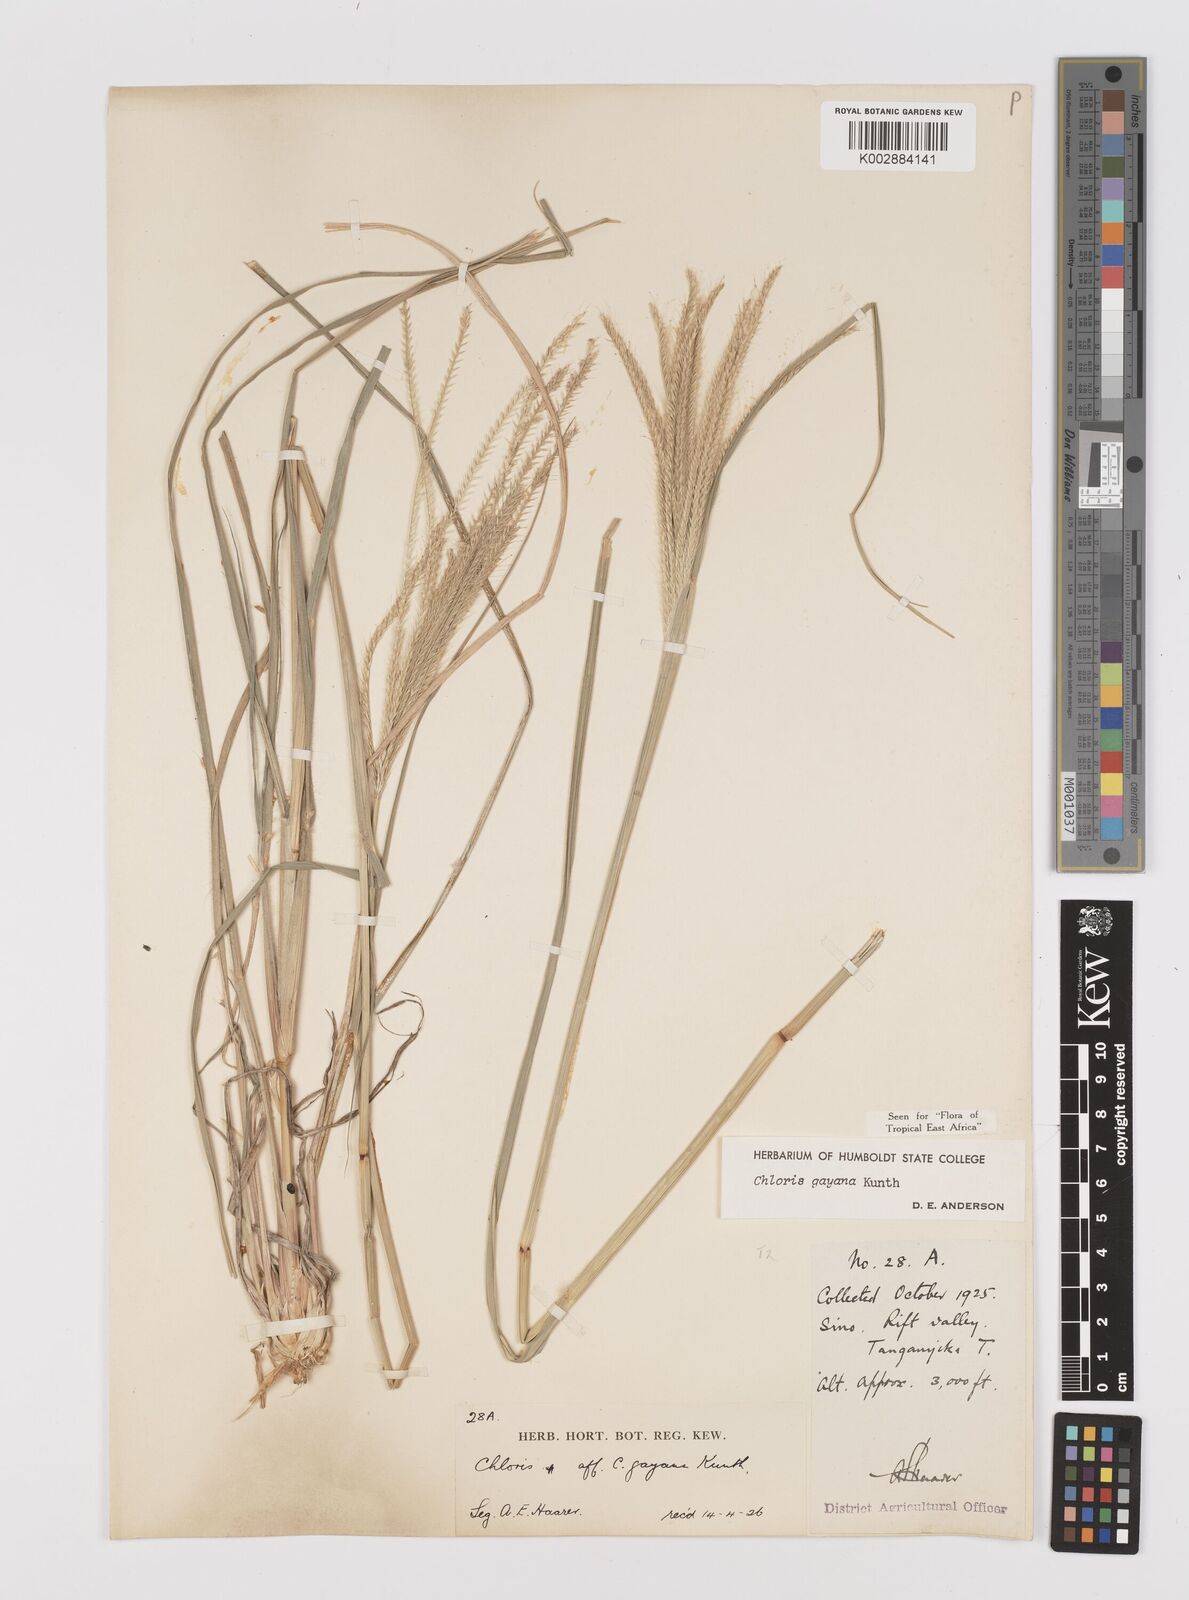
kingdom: Plantae
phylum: Tracheophyta
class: Liliopsida
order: Poales
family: Poaceae
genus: Chloris
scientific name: Chloris gayana
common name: Rhodes grass
